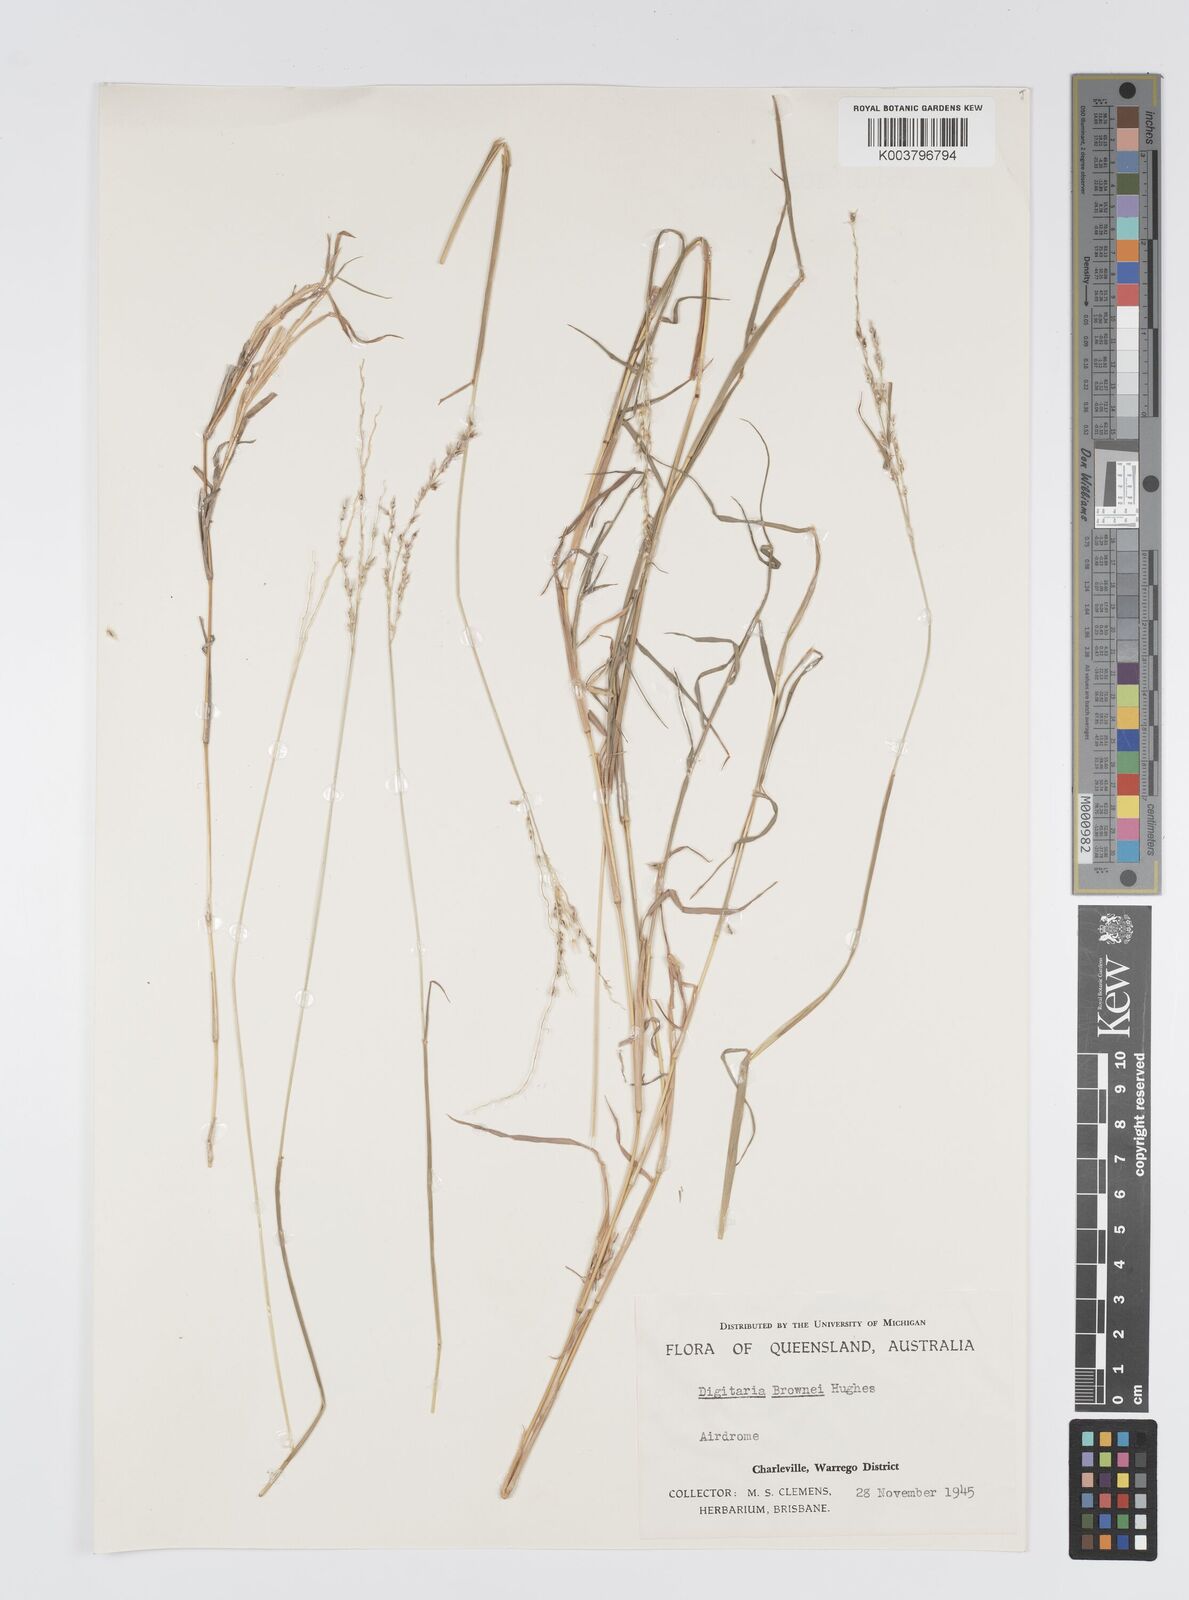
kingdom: Plantae
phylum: Tracheophyta
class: Liliopsida
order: Poales
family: Poaceae
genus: Digitaria
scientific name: Digitaria brownii
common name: Cotton grass
